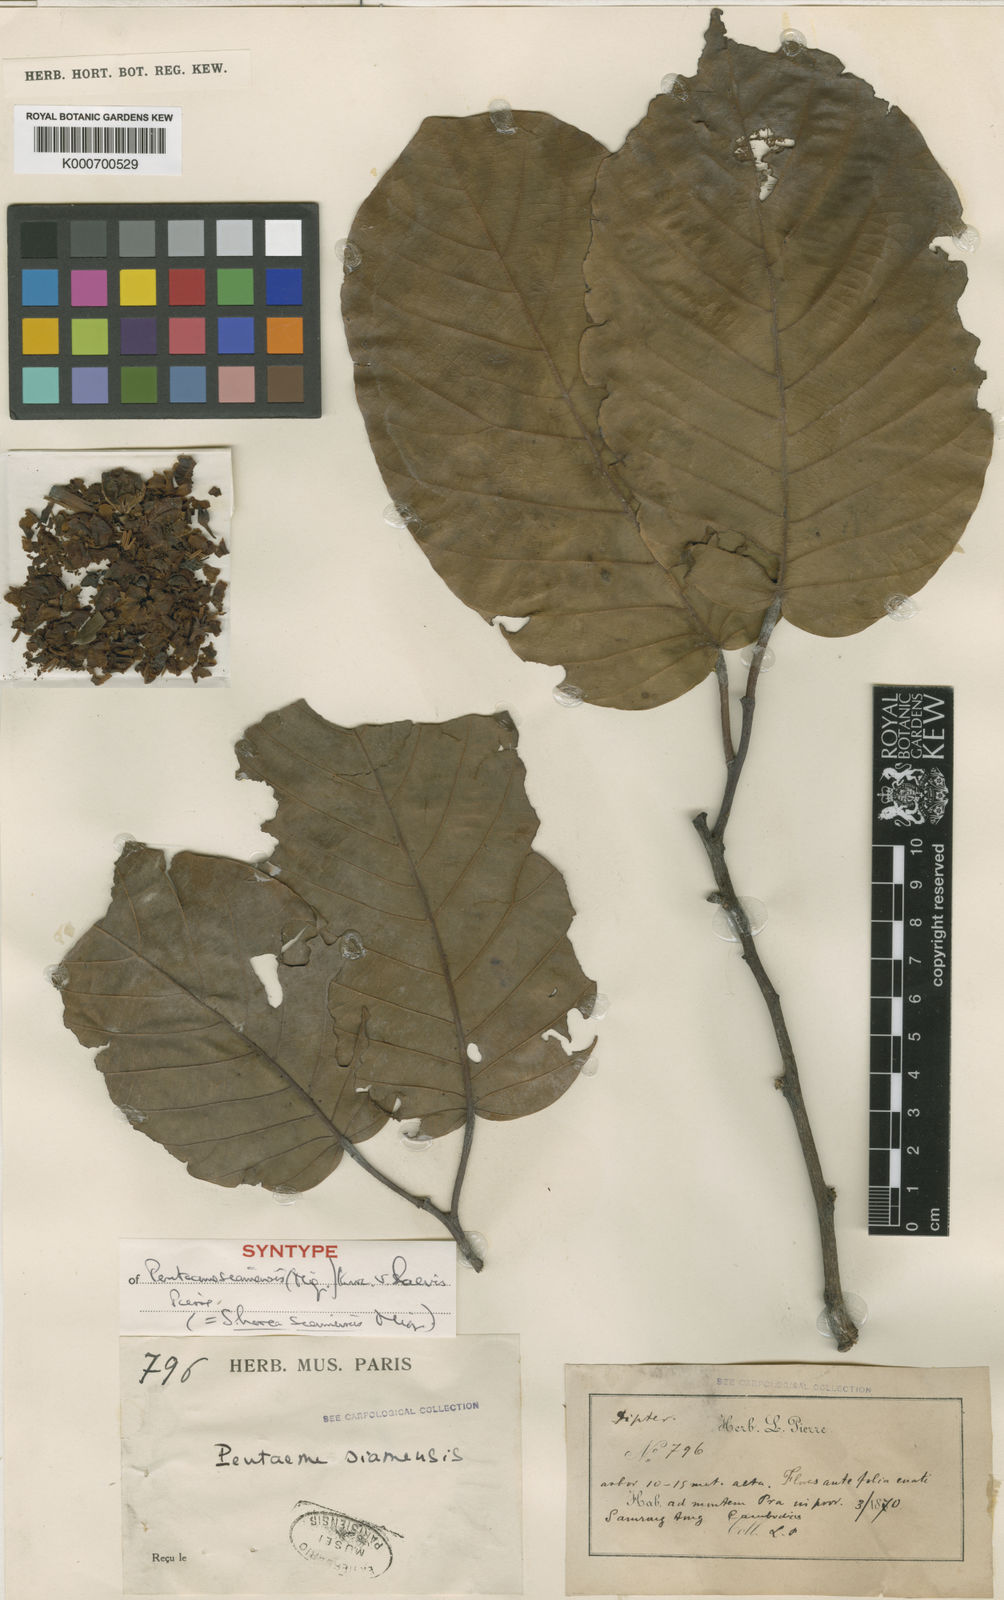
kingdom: Plantae
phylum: Tracheophyta
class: Magnoliopsida
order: Malvales
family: Dipterocarpaceae
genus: Pentacme
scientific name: Pentacme siamensis
